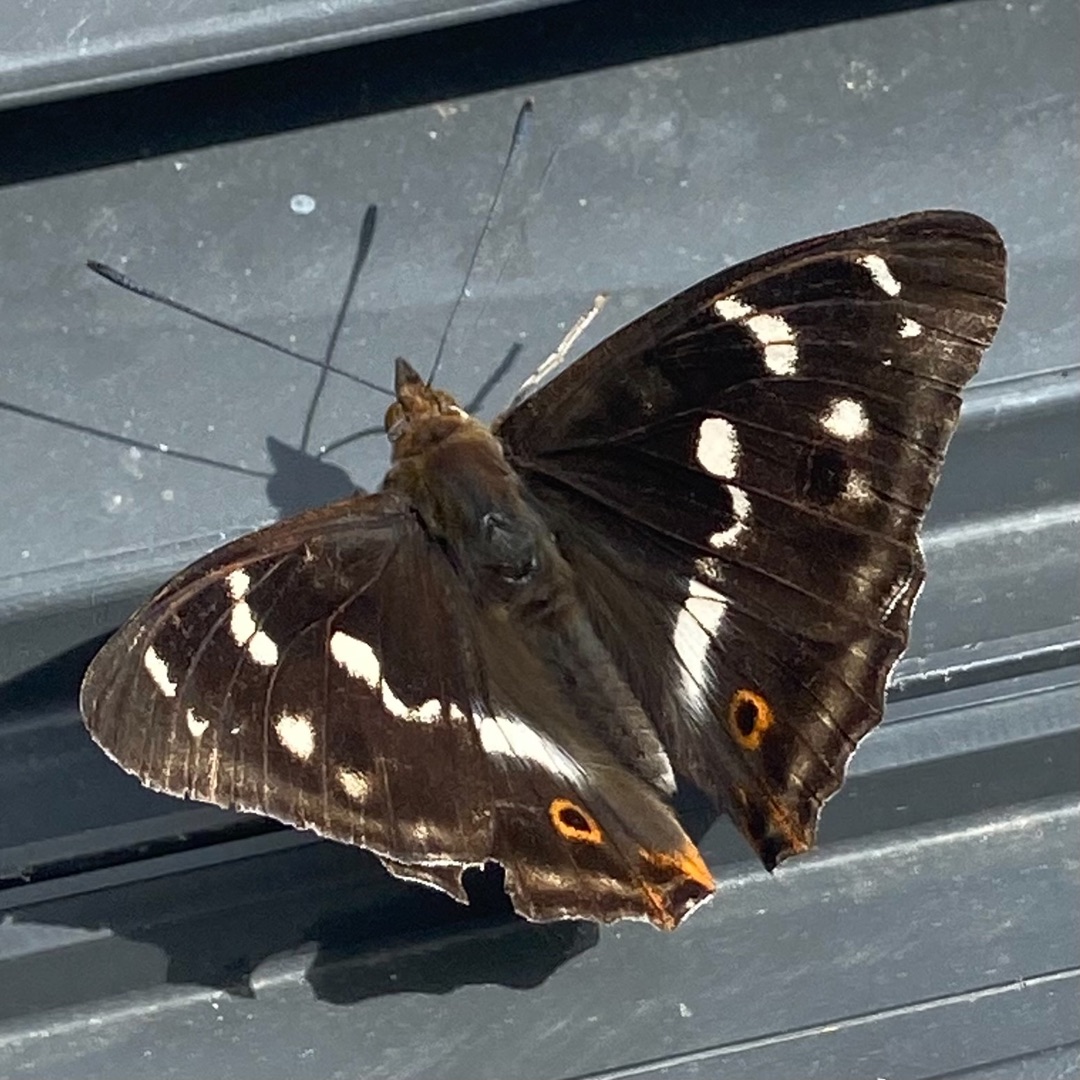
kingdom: Animalia
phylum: Arthropoda
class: Insecta
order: Lepidoptera
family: Nymphalidae
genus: Apatura
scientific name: Apatura iris
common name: Iris
